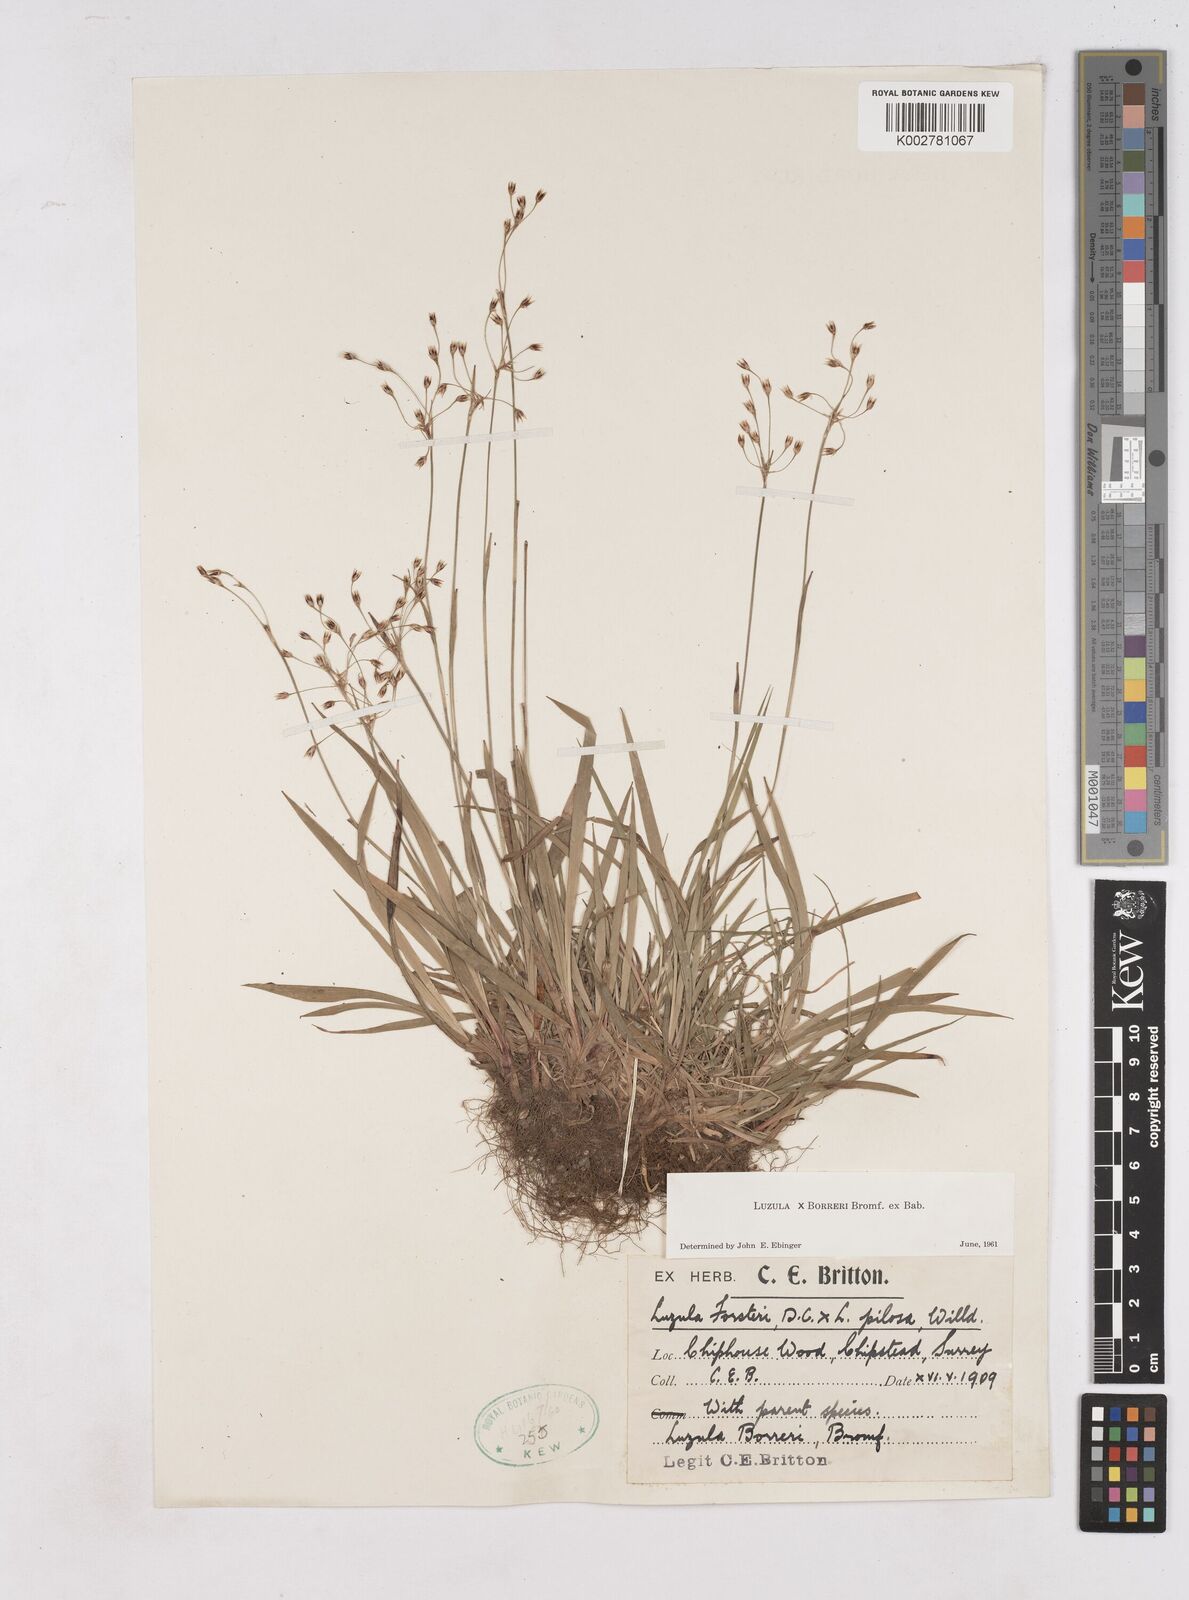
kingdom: Plantae
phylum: Tracheophyta
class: Liliopsida
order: Poales
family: Juncaceae
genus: Luzula
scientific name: Luzula forsteri
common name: Southern wood-rush
